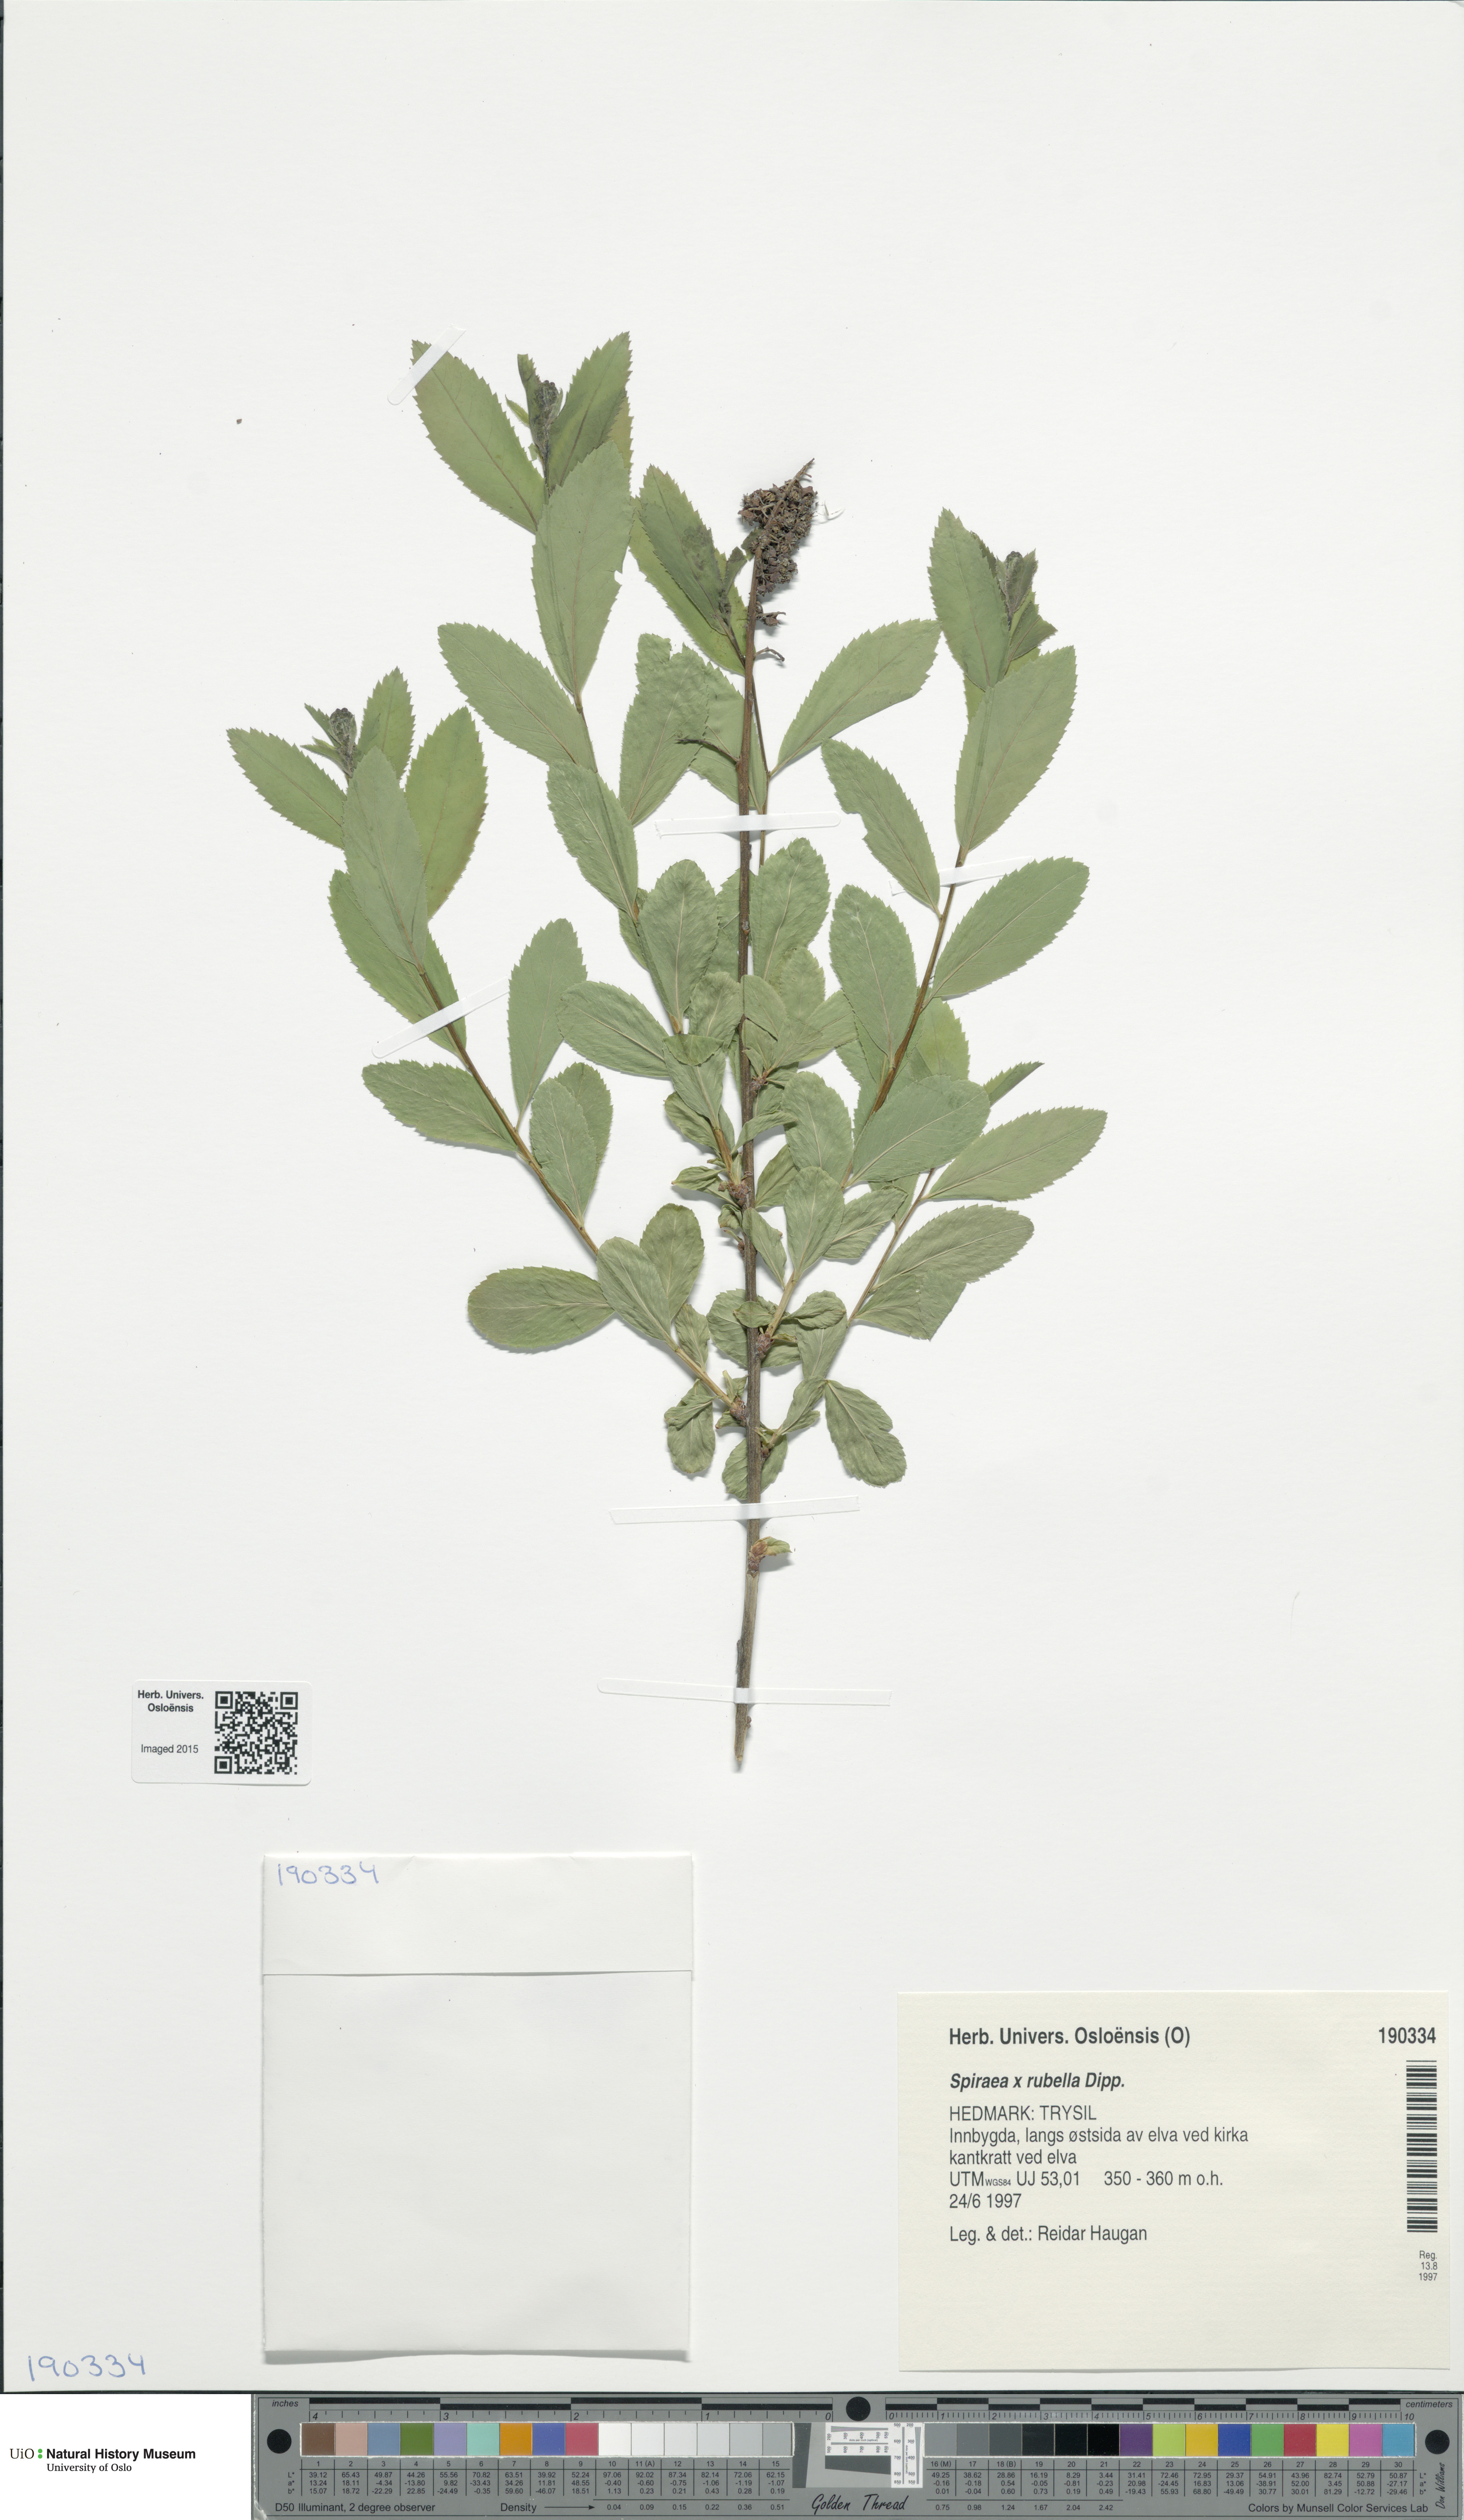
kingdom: Plantae
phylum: Tracheophyta
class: Magnoliopsida
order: Rosales
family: Rosaceae
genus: Spiraea
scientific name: Spiraea rosalba
